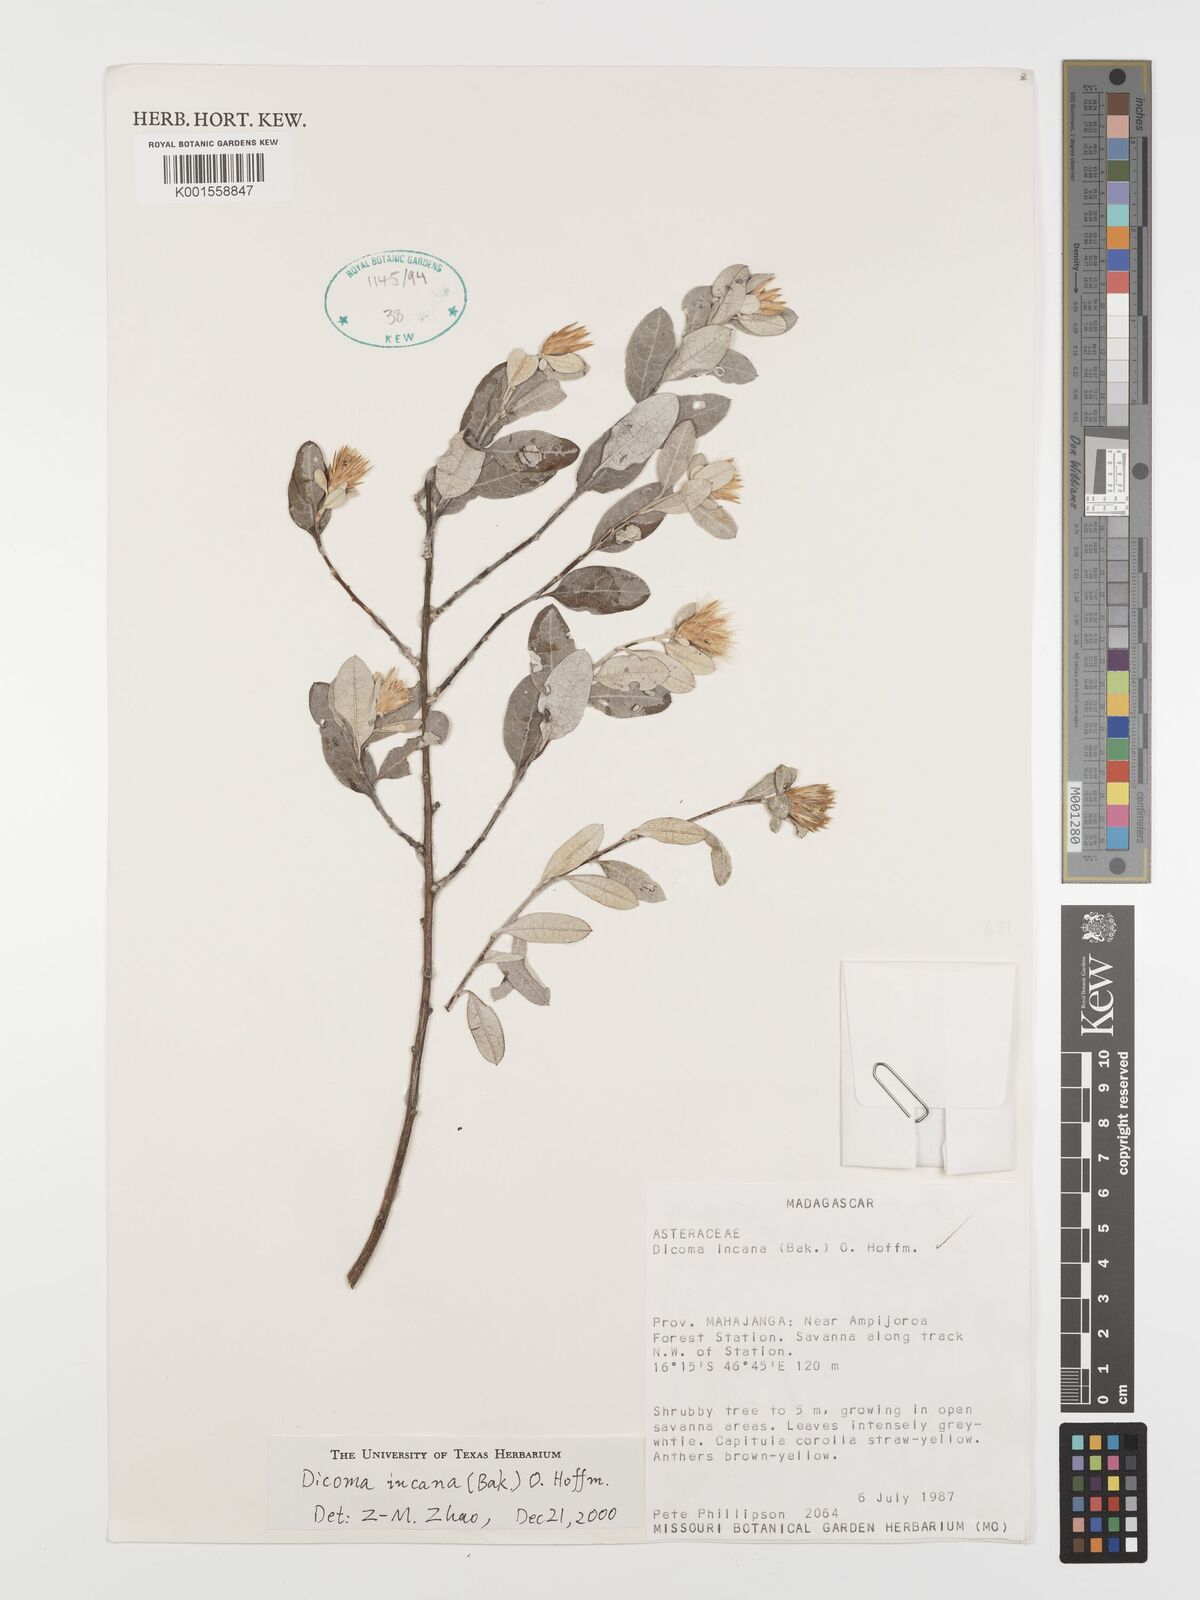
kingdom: Plantae
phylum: Tracheophyta
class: Magnoliopsida
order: Asterales
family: Asteraceae
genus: Dicoma
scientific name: Dicoma incana
